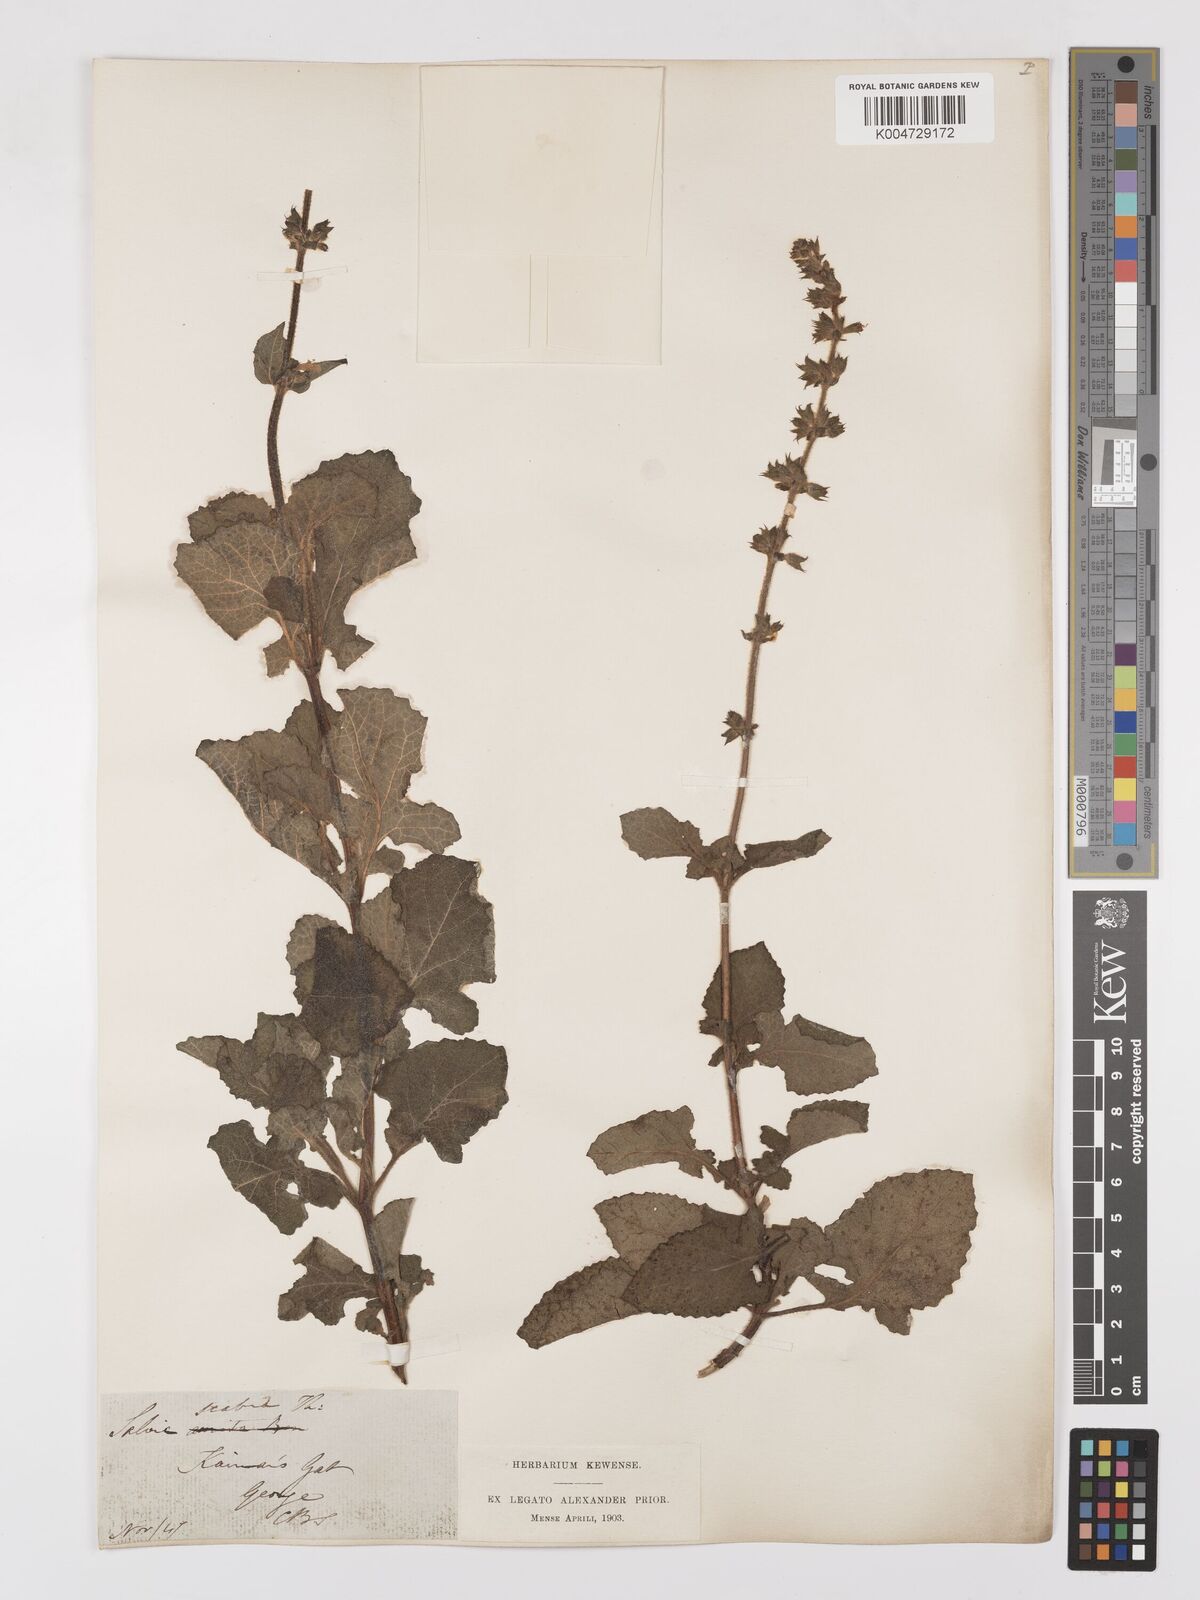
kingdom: Plantae
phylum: Tracheophyta
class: Magnoliopsida
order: Lamiales
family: Lamiaceae
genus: Salvia
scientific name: Salvia aurita
